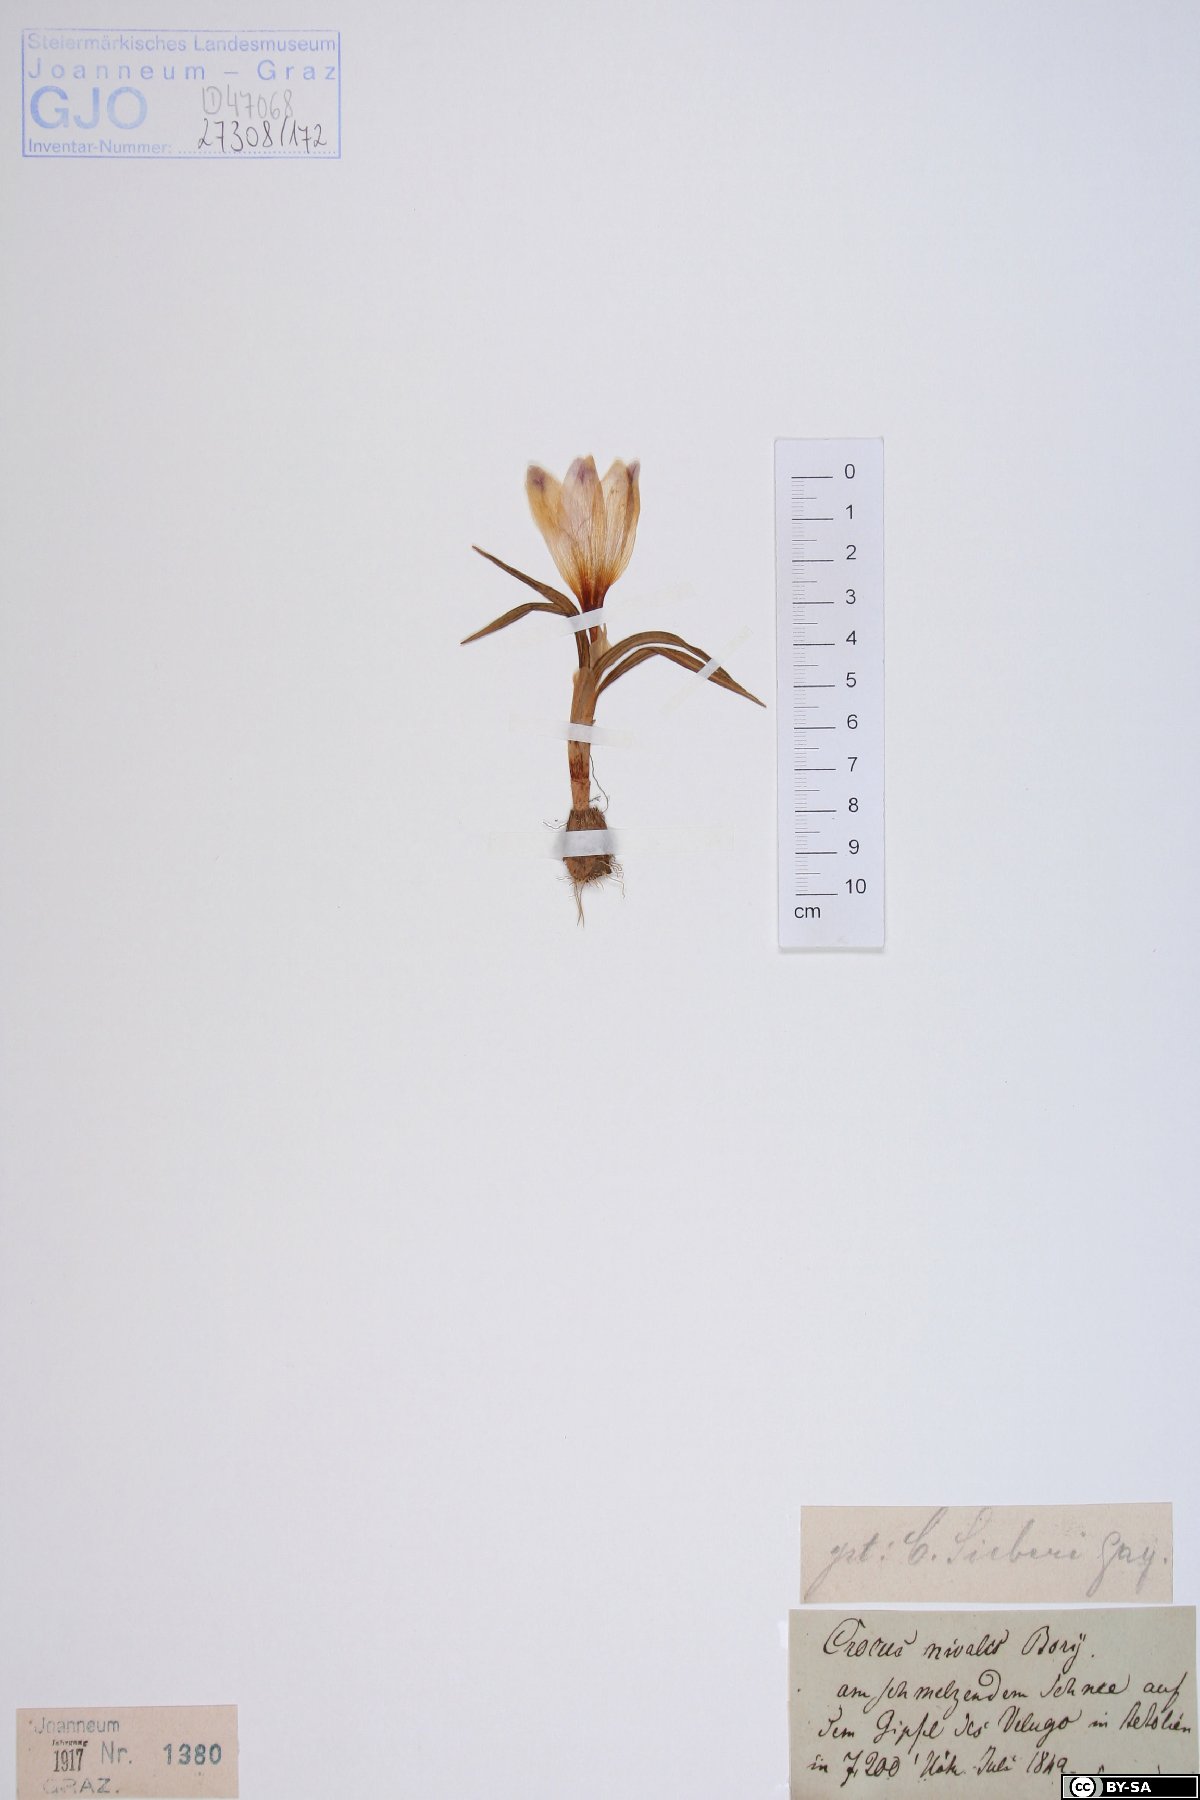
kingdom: Plantae
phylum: Tracheophyta
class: Liliopsida
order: Asparagales
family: Iridaceae
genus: Crocus
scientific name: Crocus nivalis
